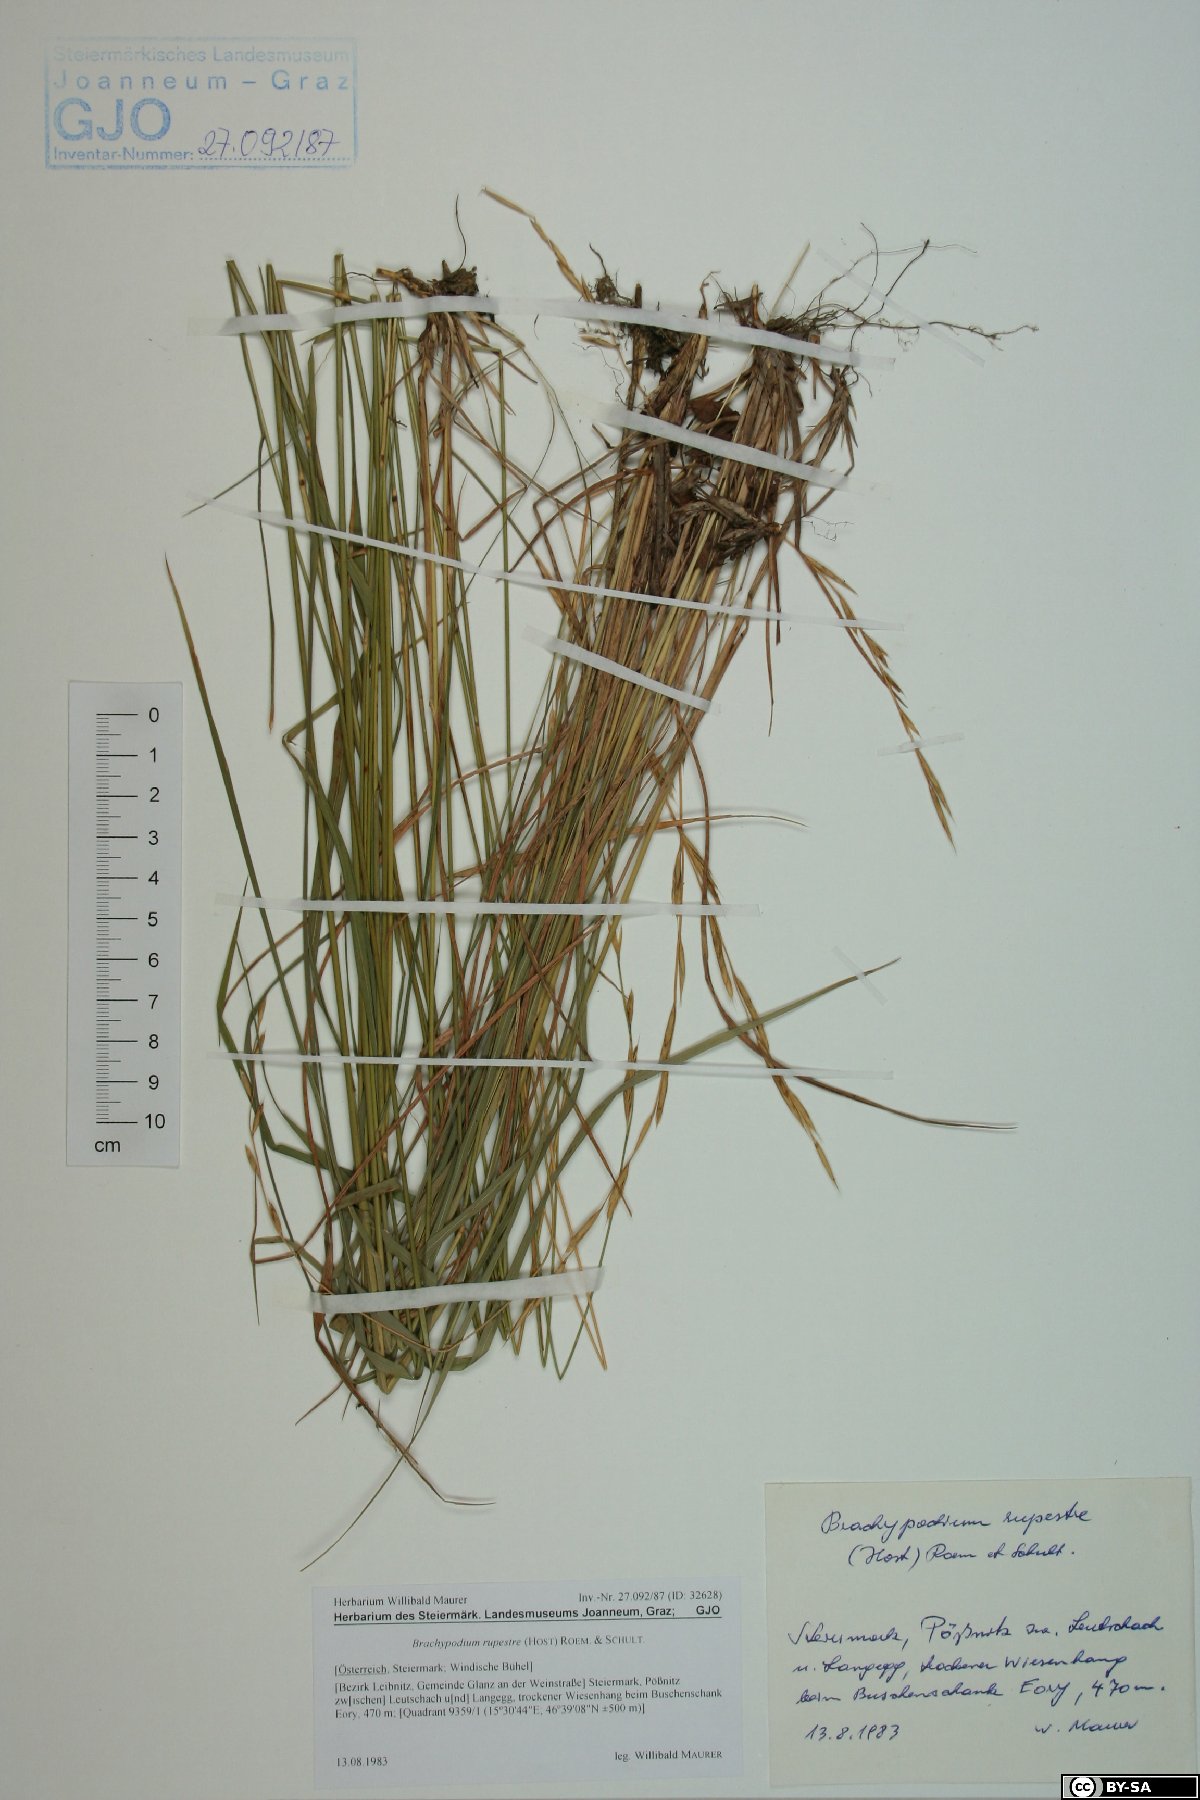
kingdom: Plantae
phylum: Tracheophyta
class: Liliopsida
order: Poales
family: Poaceae
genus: Brachypodium
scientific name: Brachypodium pinnatum
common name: Tor grass
